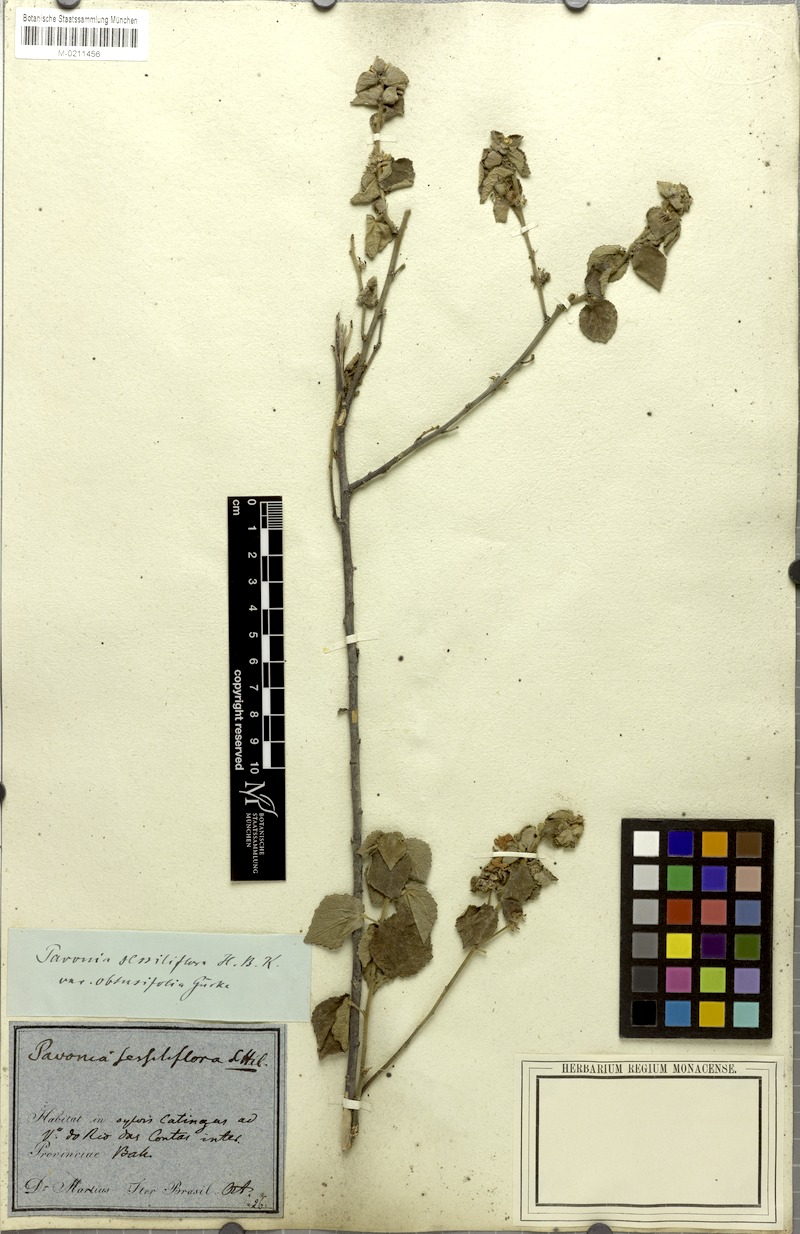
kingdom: Plantae
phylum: Tracheophyta
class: Magnoliopsida
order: Malvales
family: Malvaceae
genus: Peltaea
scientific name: Peltaea trinervis
